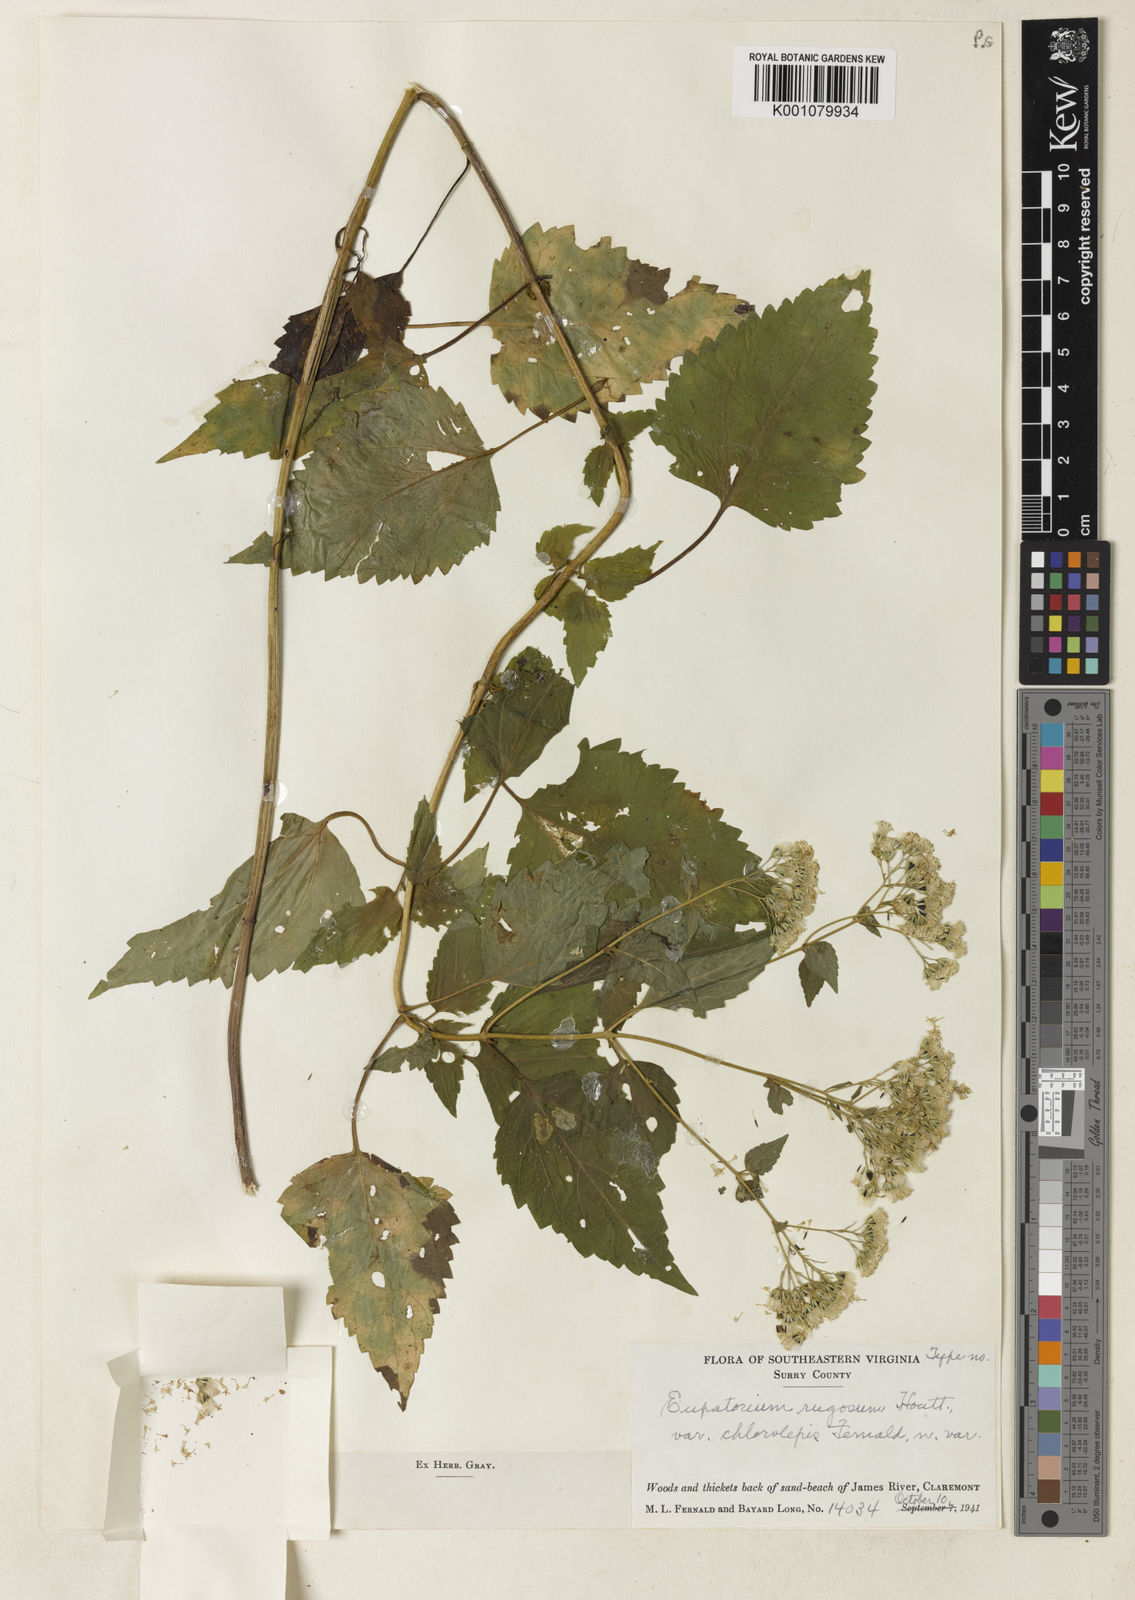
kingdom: Plantae
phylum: Tracheophyta
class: Magnoliopsida
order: Asterales
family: Asteraceae
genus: Ageratina
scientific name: Ageratina
